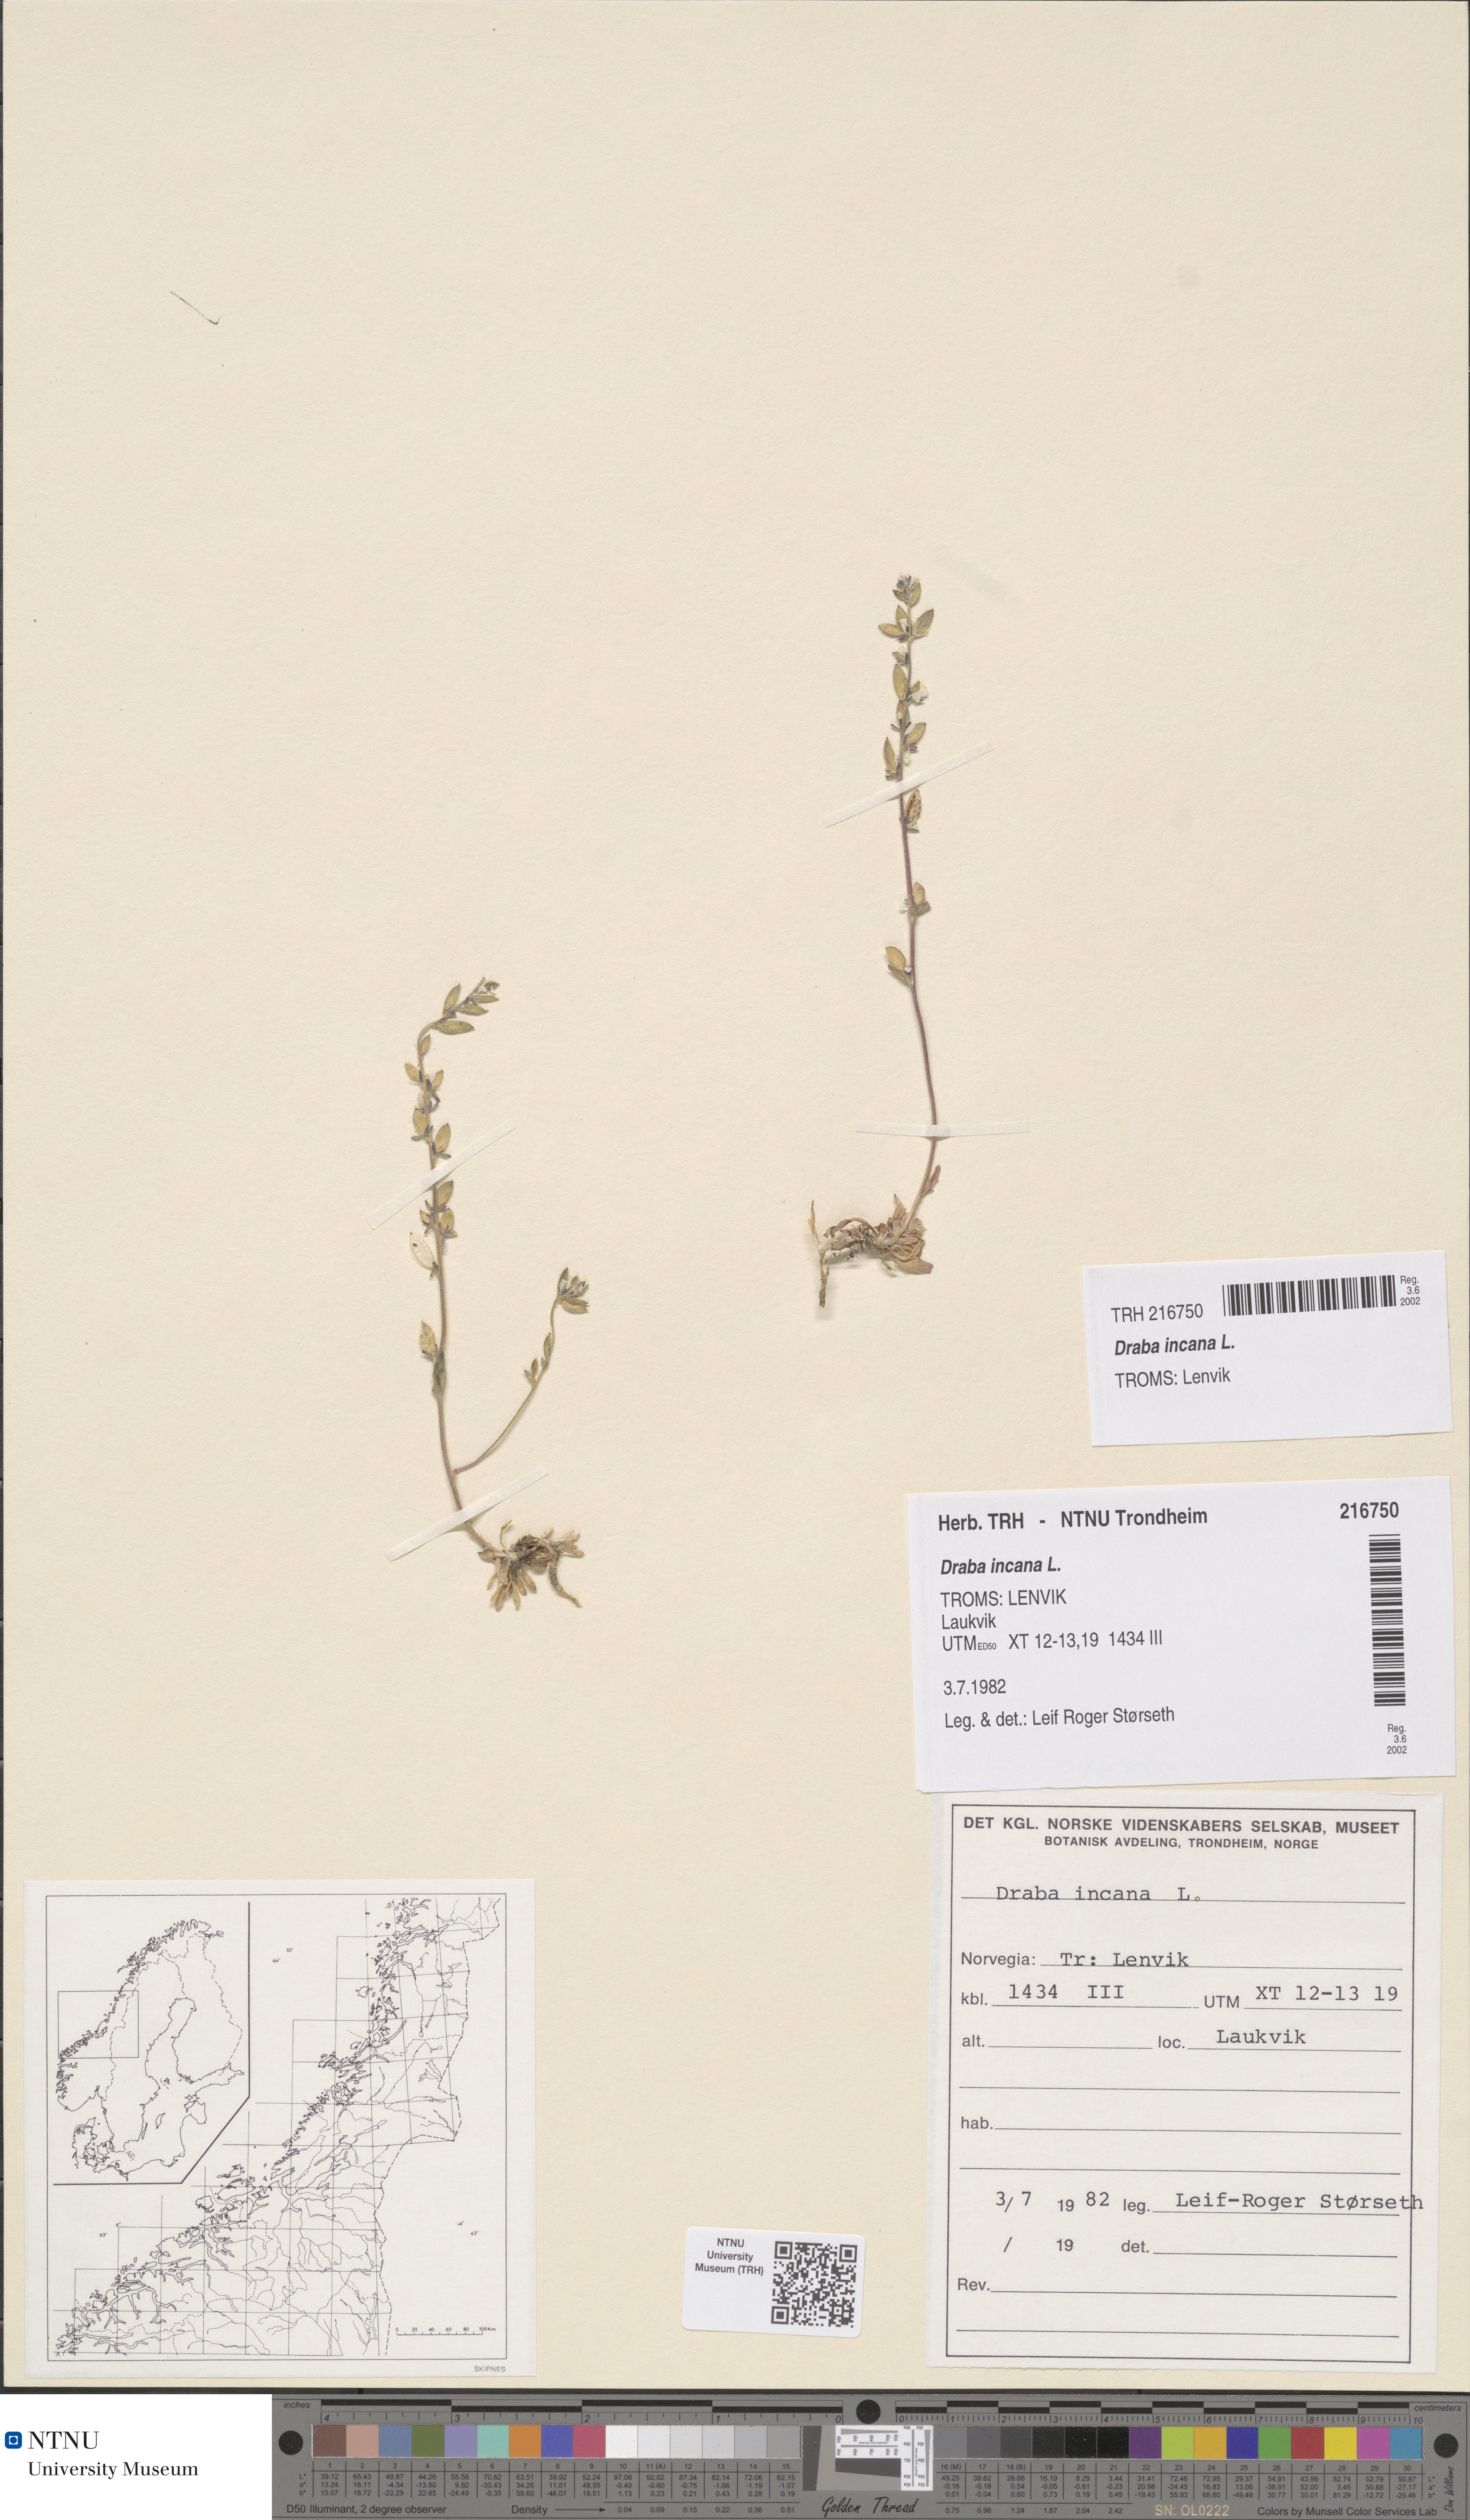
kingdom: Plantae
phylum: Tracheophyta
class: Magnoliopsida
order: Brassicales
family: Brassicaceae
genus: Draba
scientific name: Draba incana
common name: Hoary whitlow-grass
